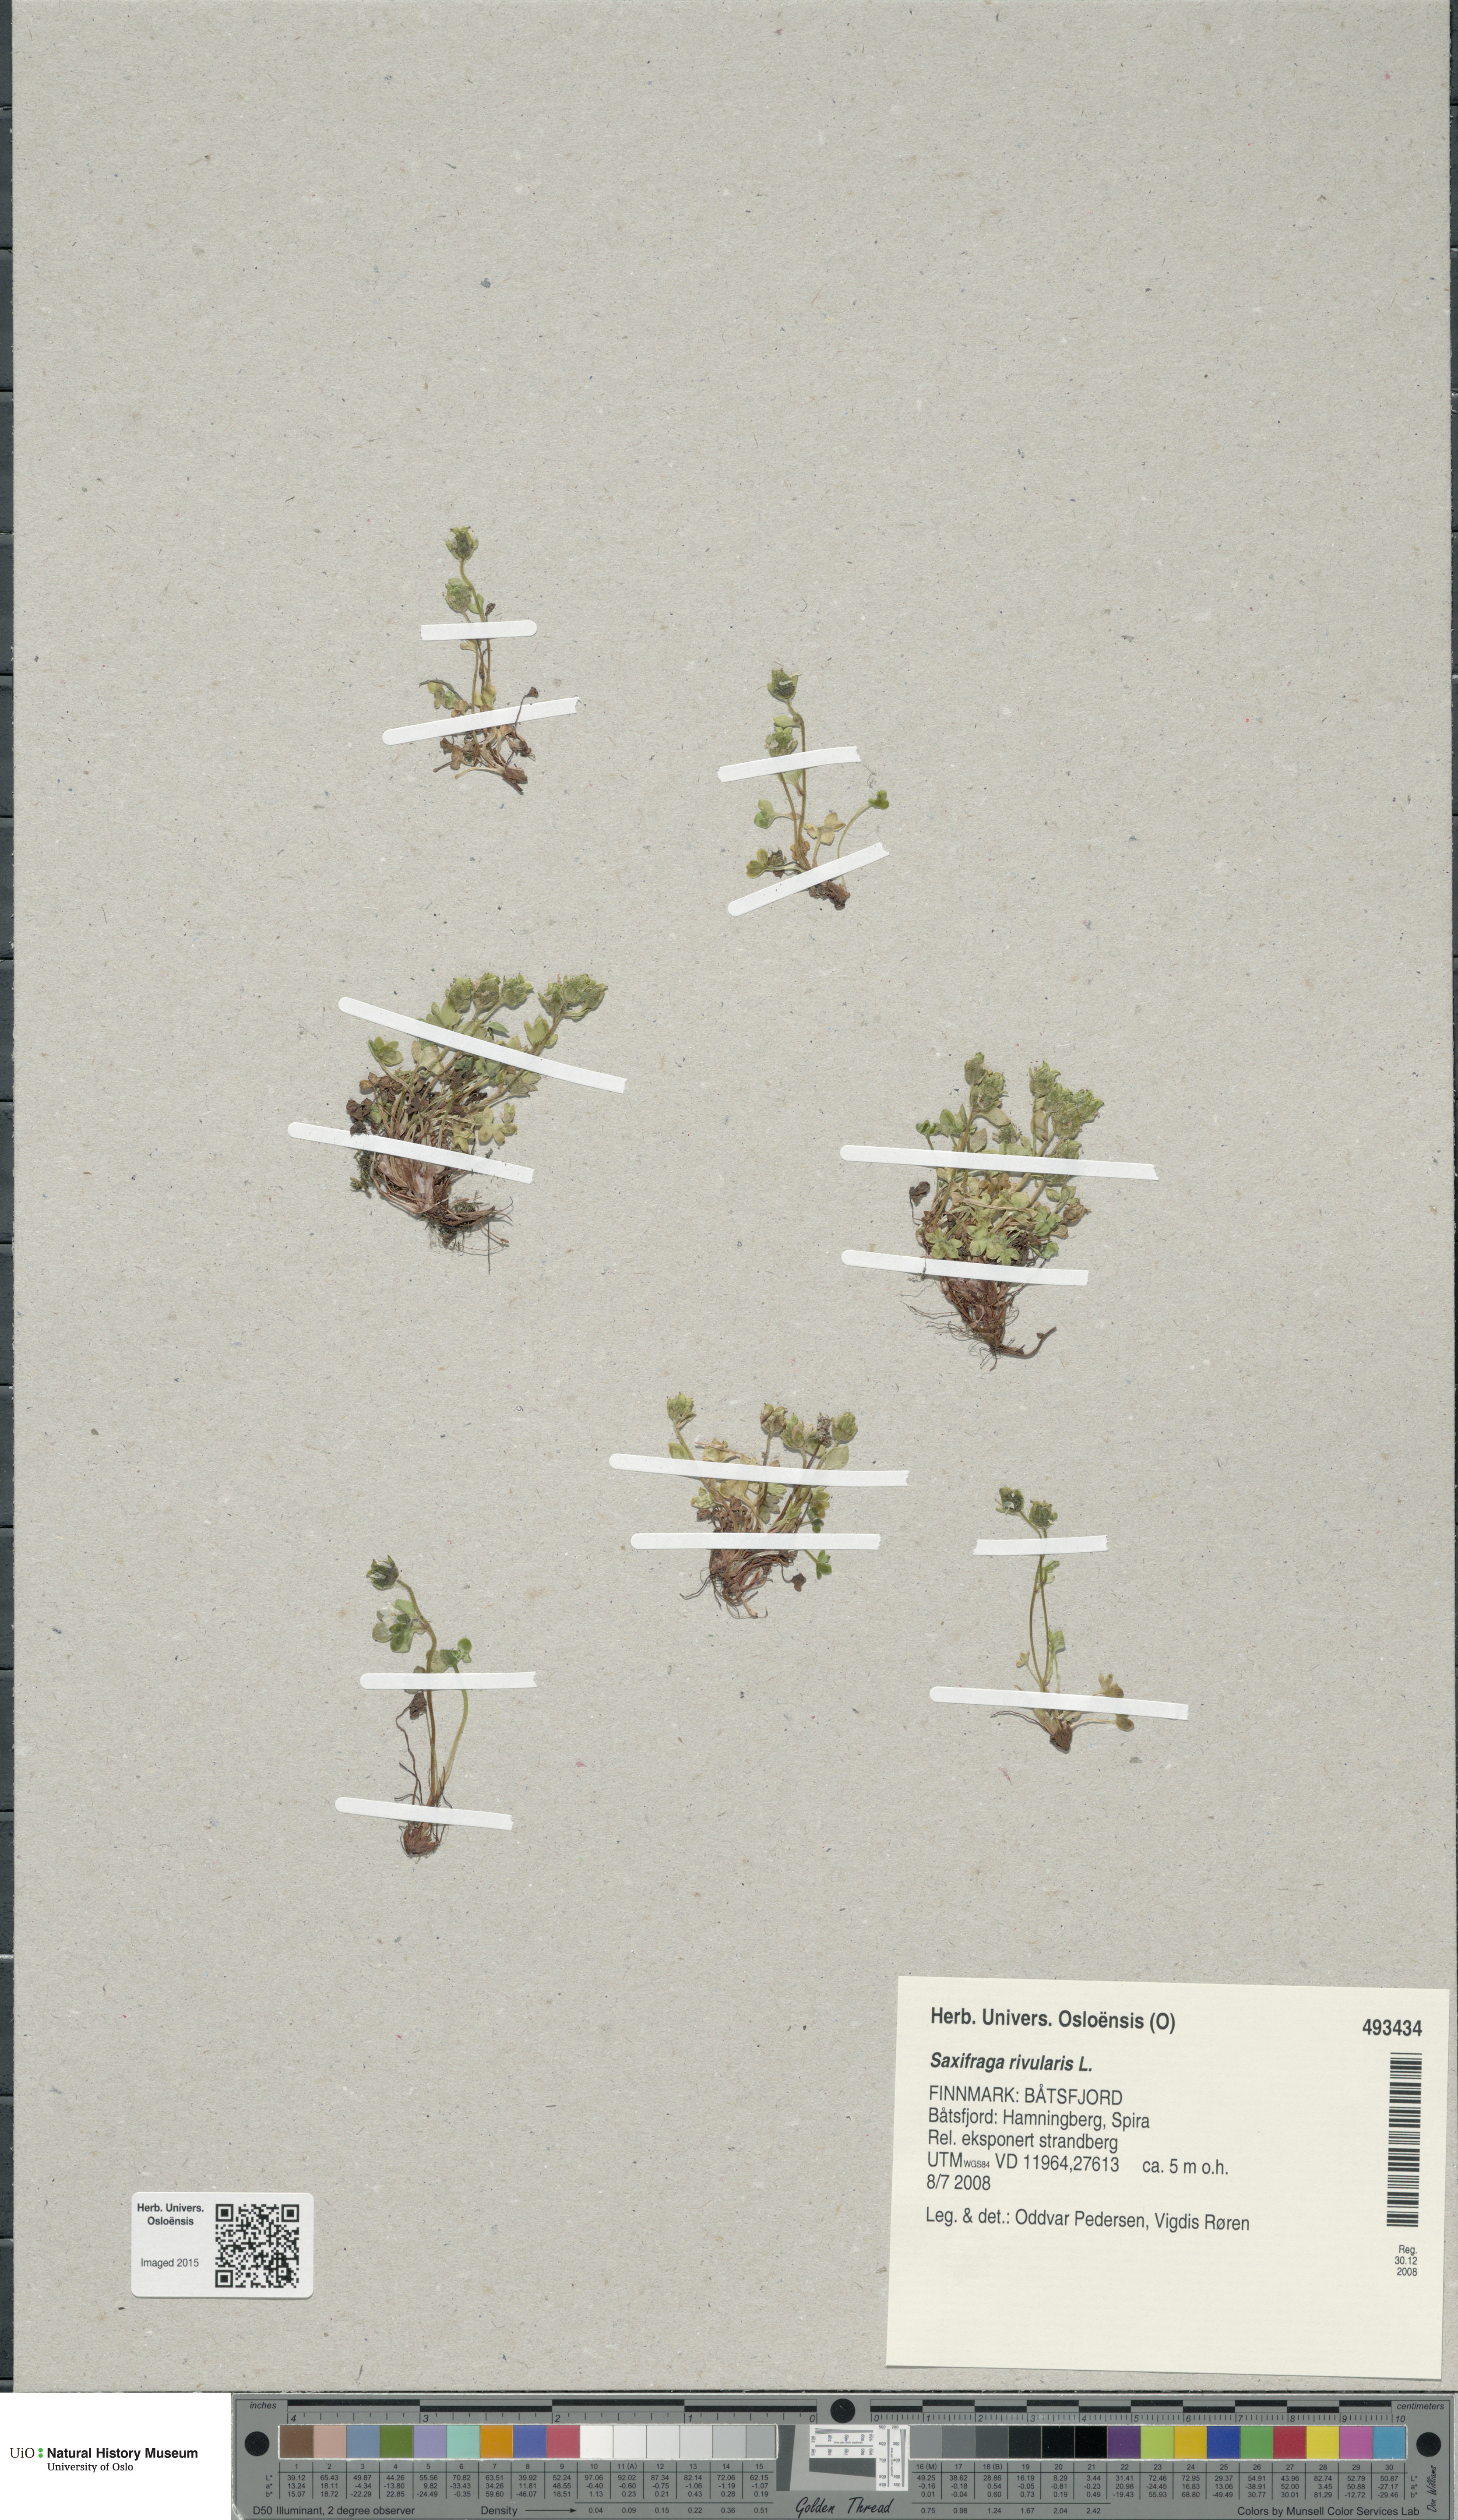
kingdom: Plantae
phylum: Tracheophyta
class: Magnoliopsida
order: Saxifragales
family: Saxifragaceae
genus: Saxifraga
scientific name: Saxifraga rivularis
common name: Highland saxifrage
